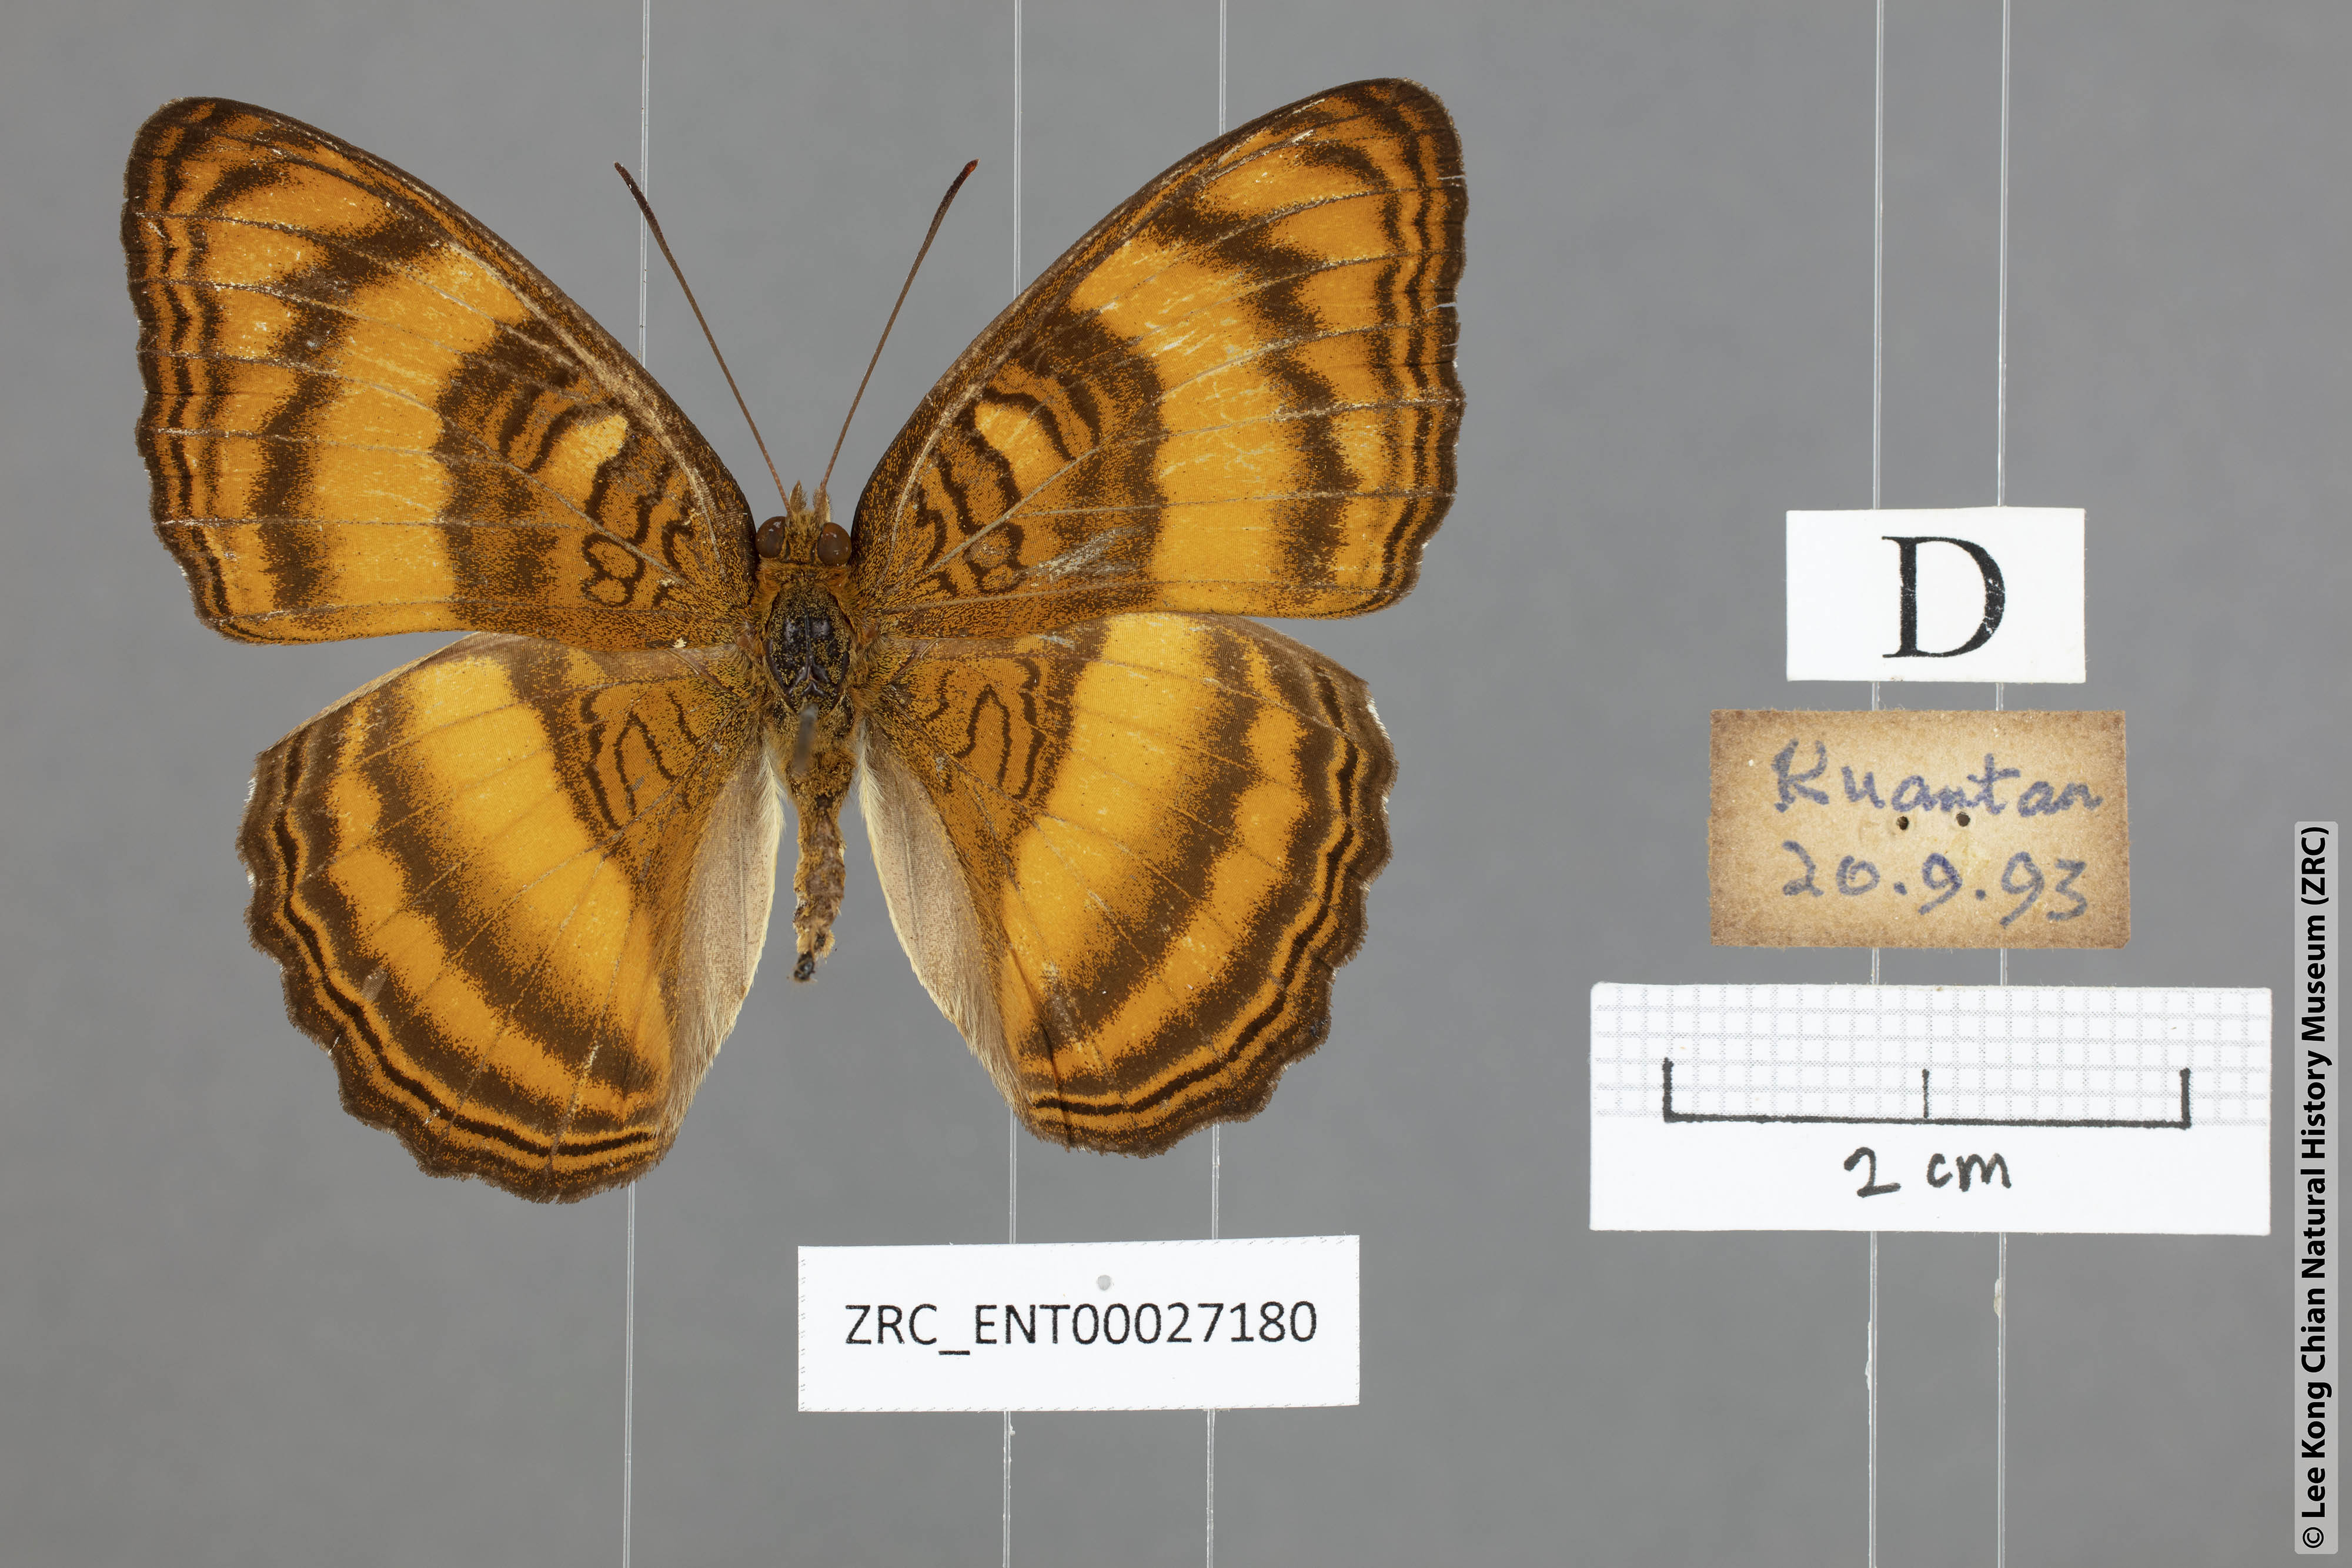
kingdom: Animalia
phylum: Arthropoda
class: Insecta
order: Lepidoptera
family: Nymphalidae
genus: Pandita
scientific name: Pandita sinope
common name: Colonel
